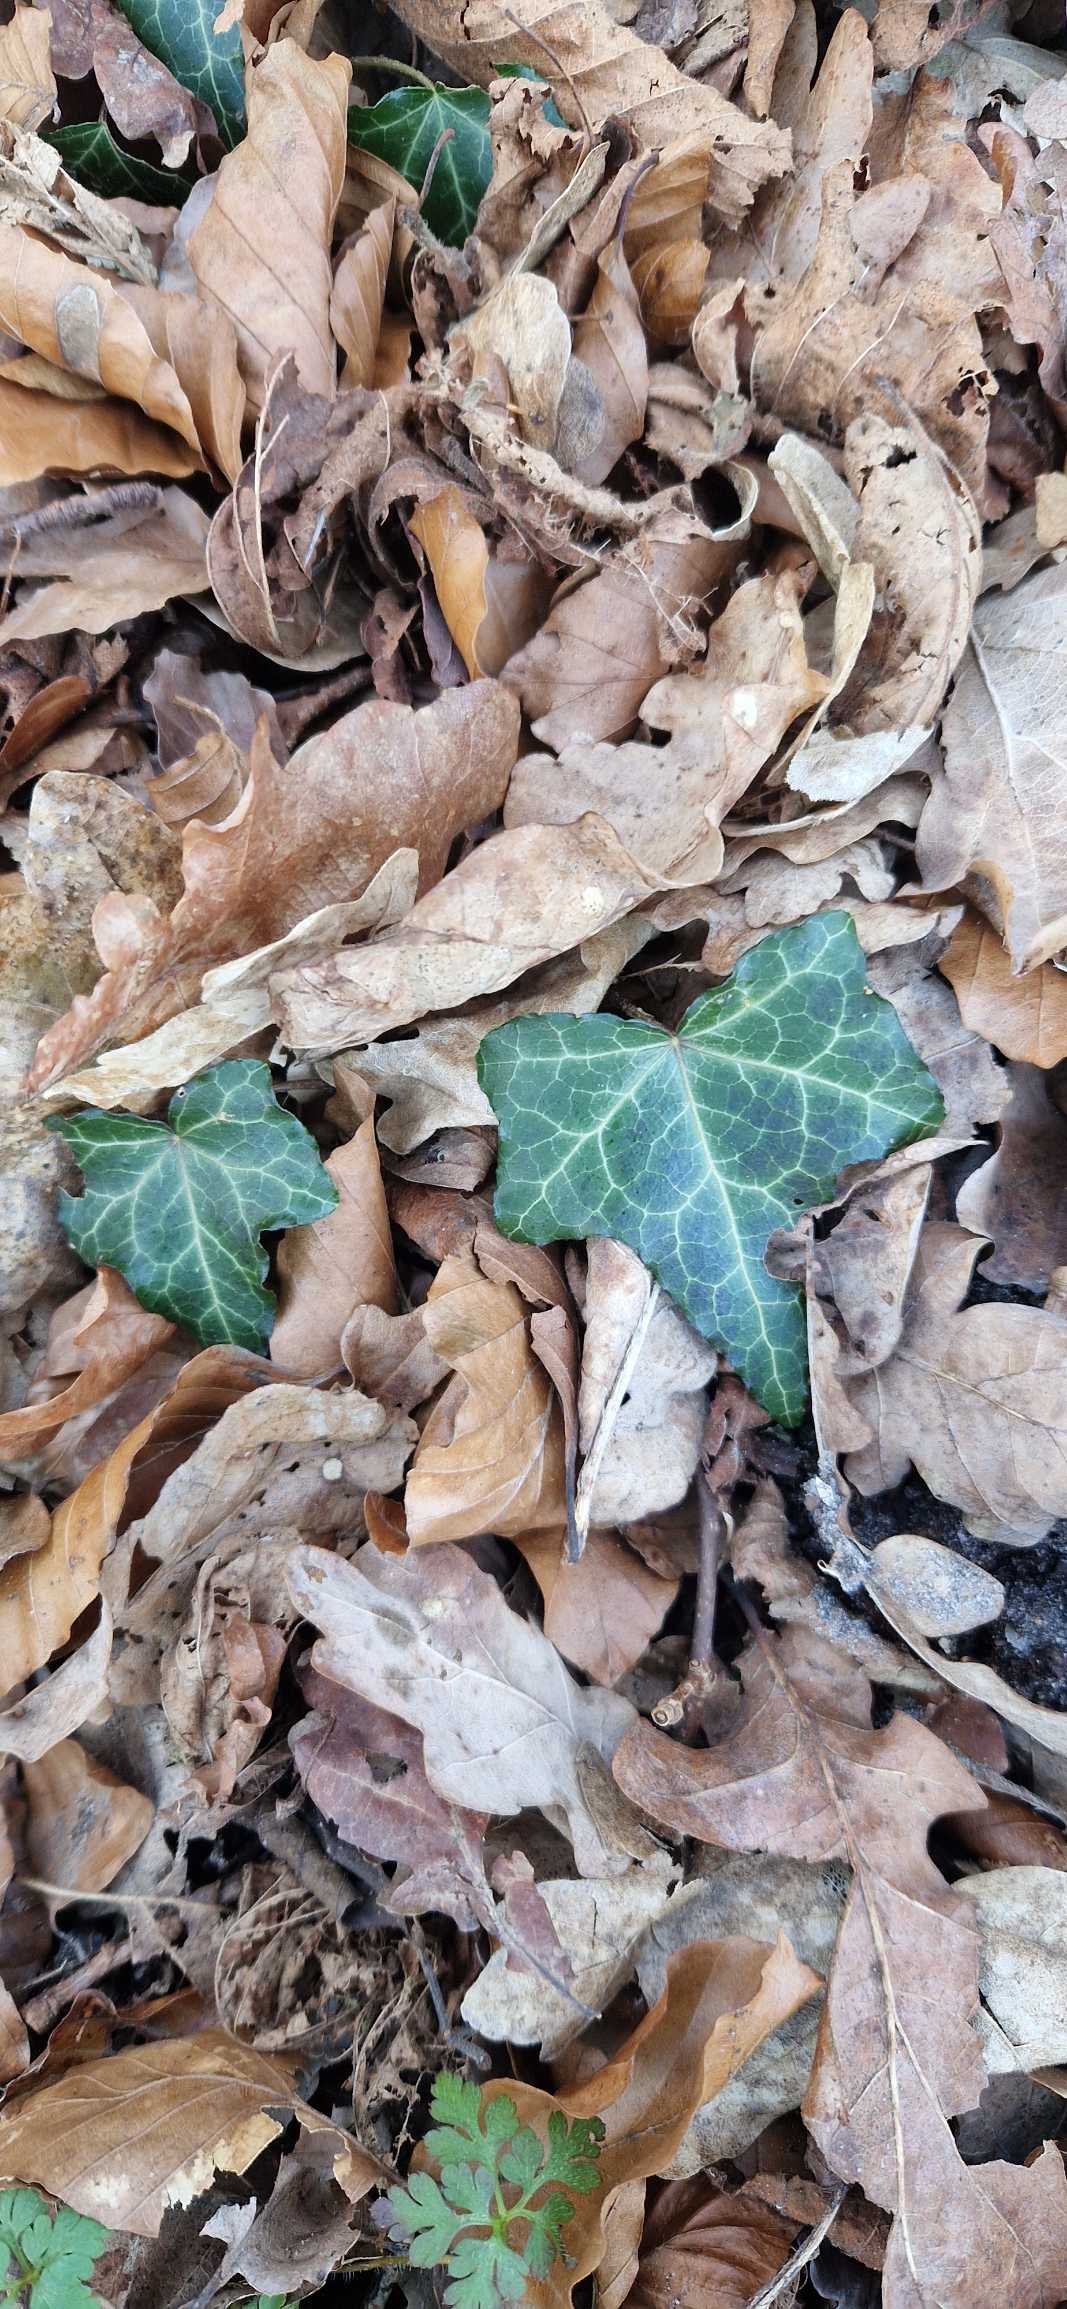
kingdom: Plantae
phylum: Tracheophyta
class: Magnoliopsida
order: Apiales
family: Araliaceae
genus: Hedera
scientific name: Hedera helix
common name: Vedbend
